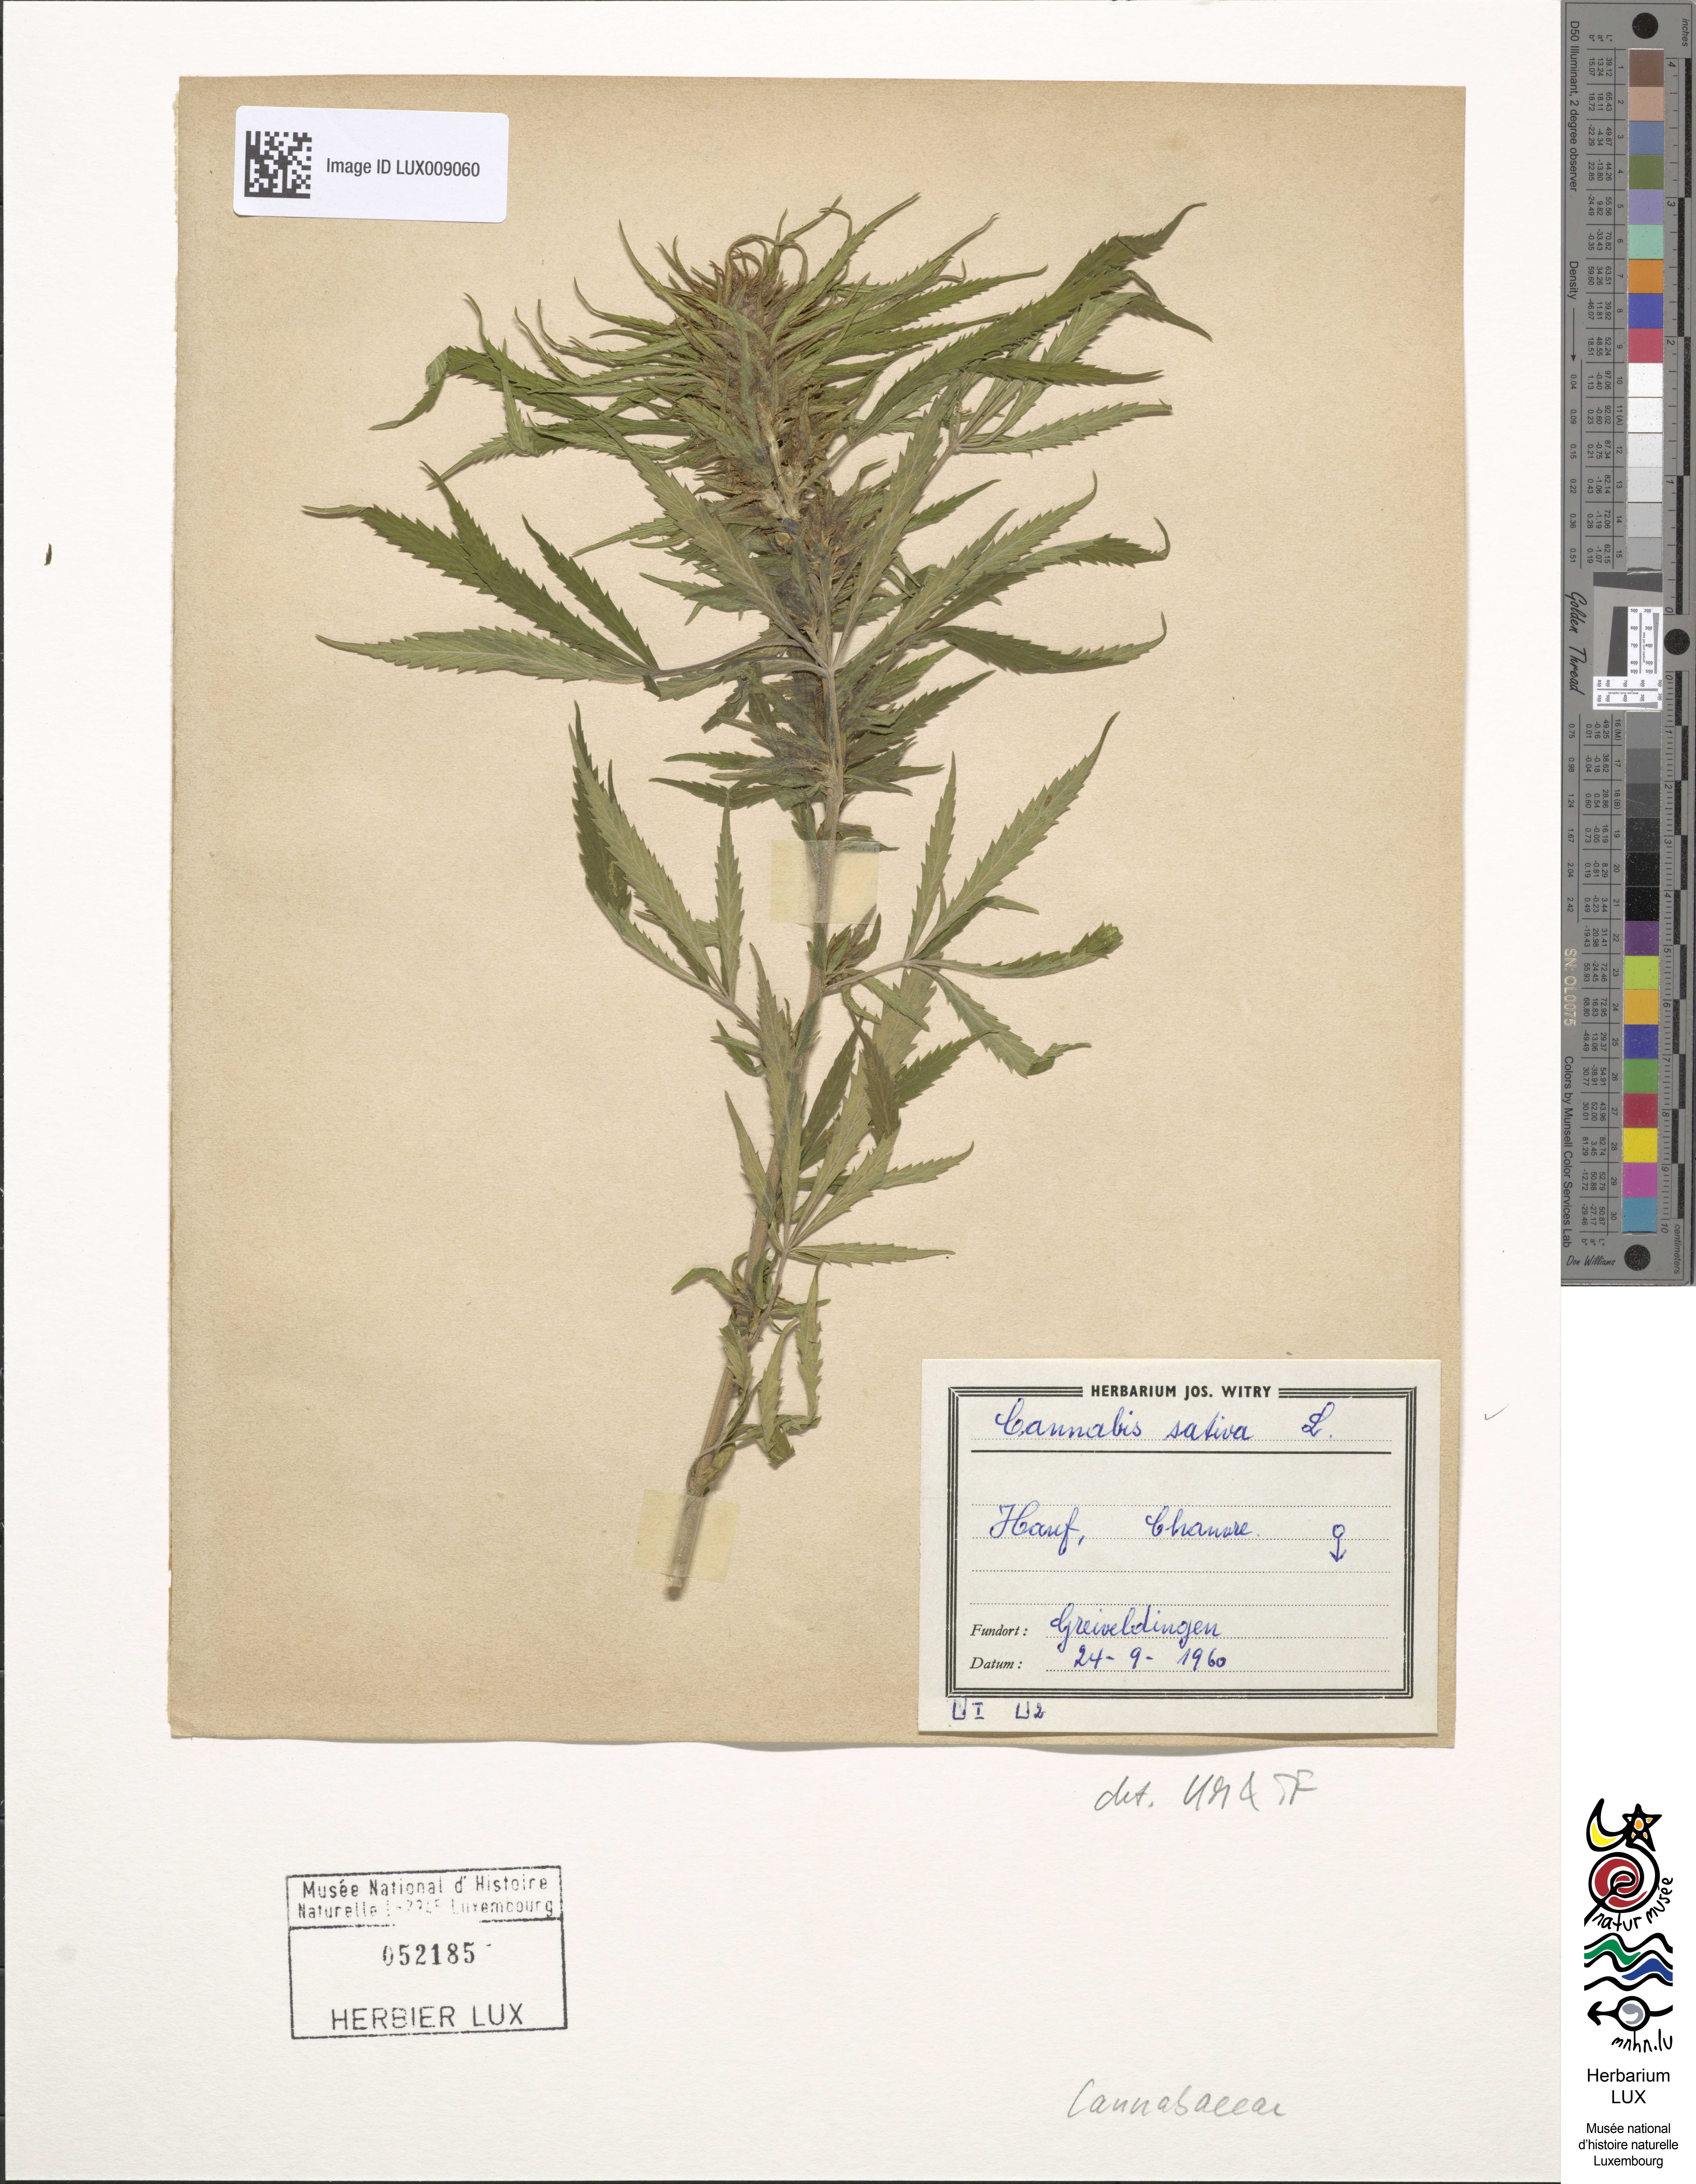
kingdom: Plantae
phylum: Tracheophyta
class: Magnoliopsida
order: Rosales
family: Cannabaceae
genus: Cannabis
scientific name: Cannabis sativa
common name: Hemp
